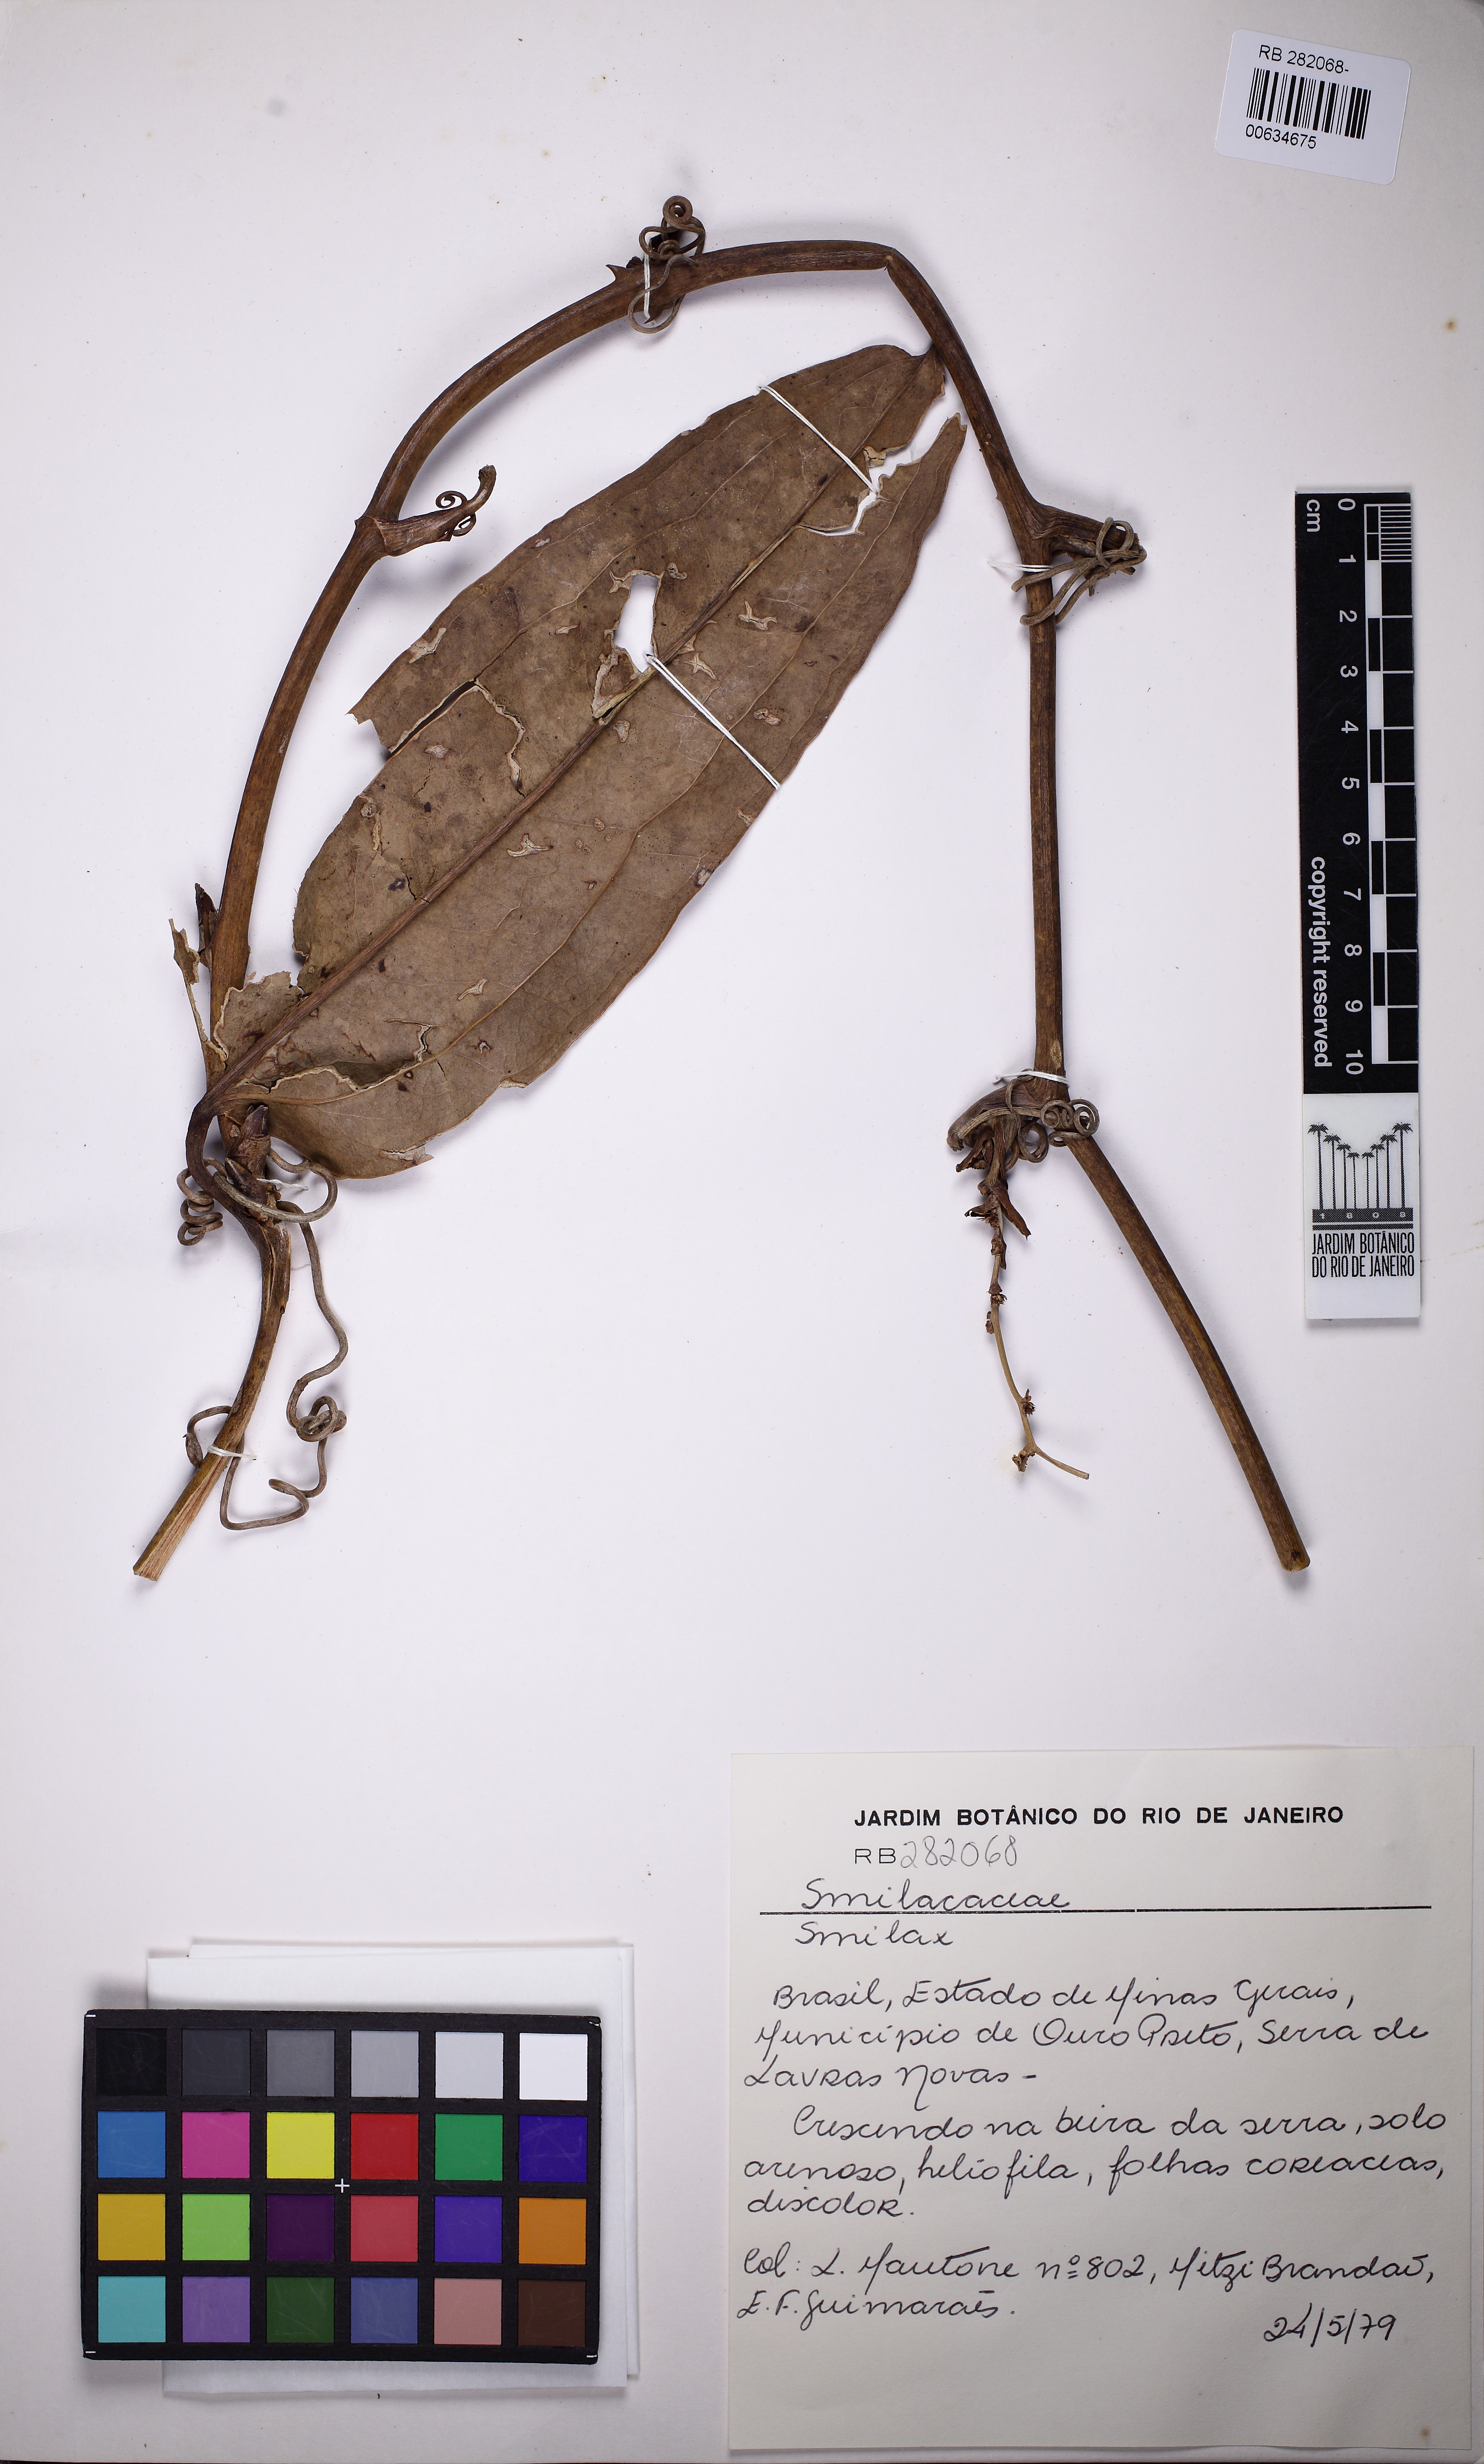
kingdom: Plantae
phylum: Tracheophyta
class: Liliopsida
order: Liliales
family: Smilacaceae
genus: Smilax
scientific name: Smilax
